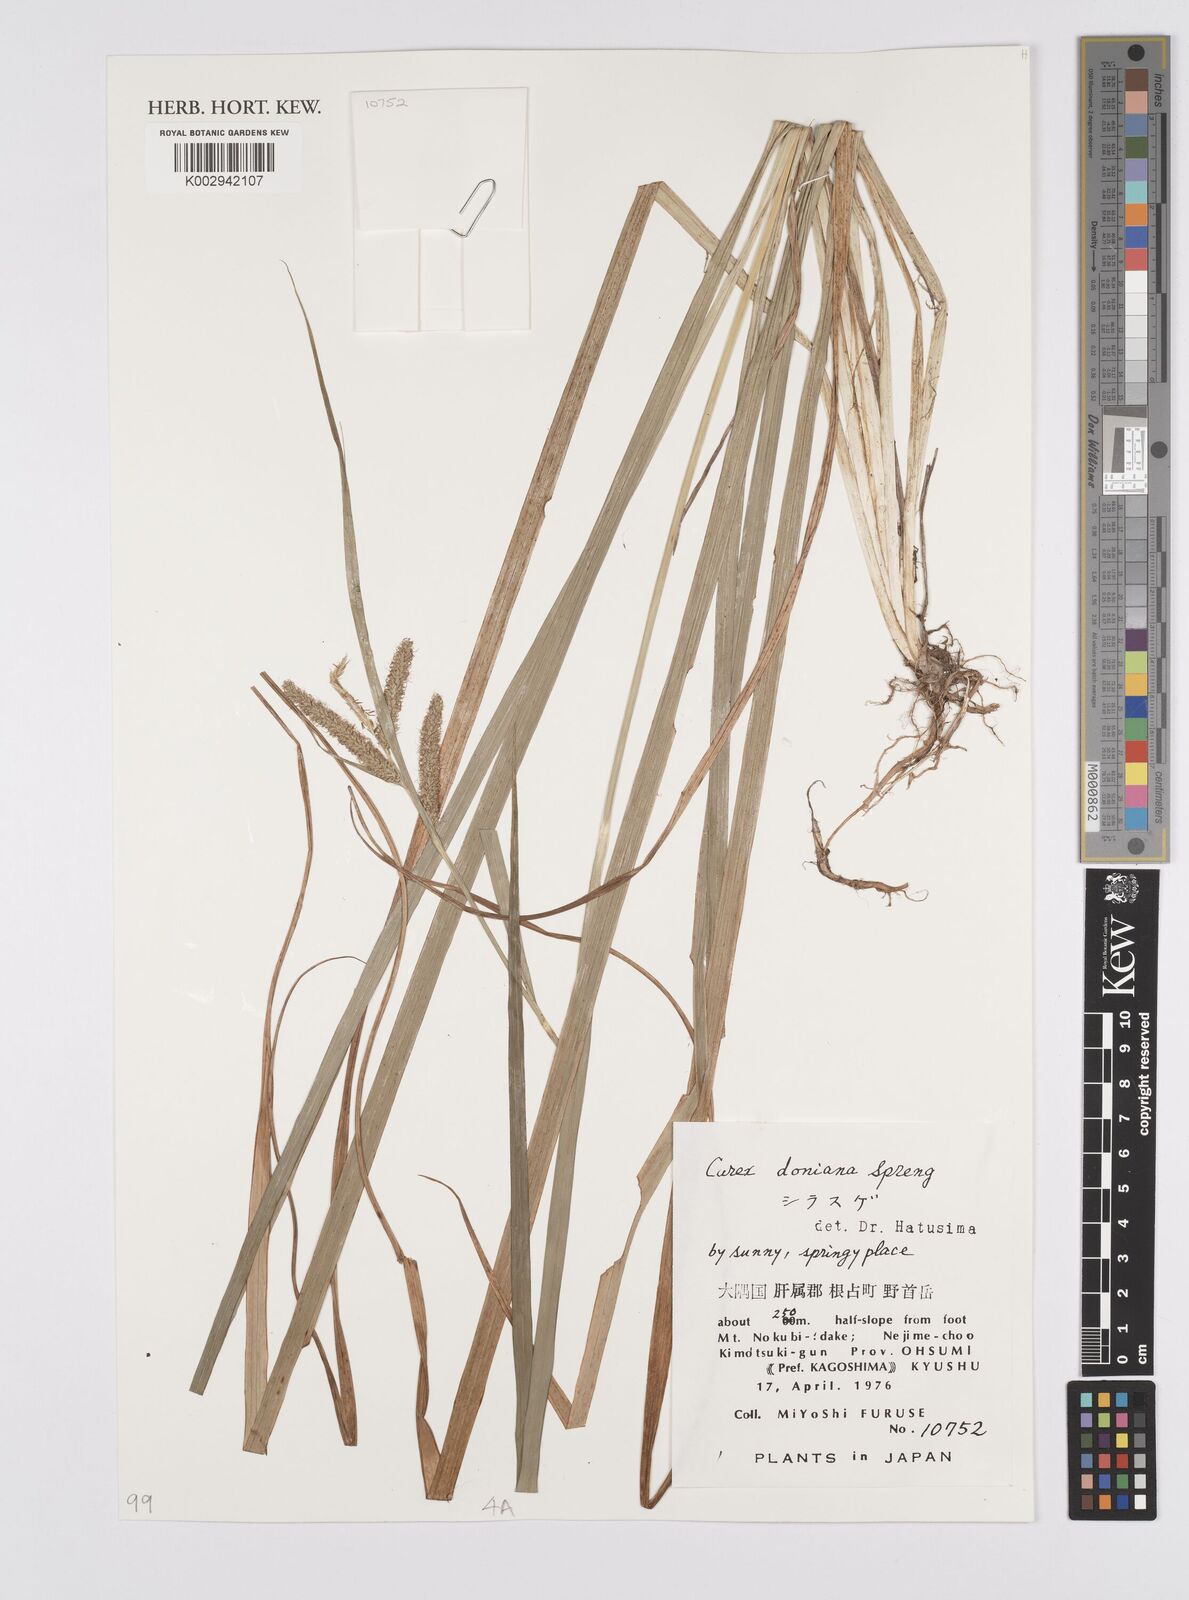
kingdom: Plantae
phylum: Tracheophyta
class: Liliopsida
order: Poales
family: Cyperaceae
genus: Carex
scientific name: Carex japonica
